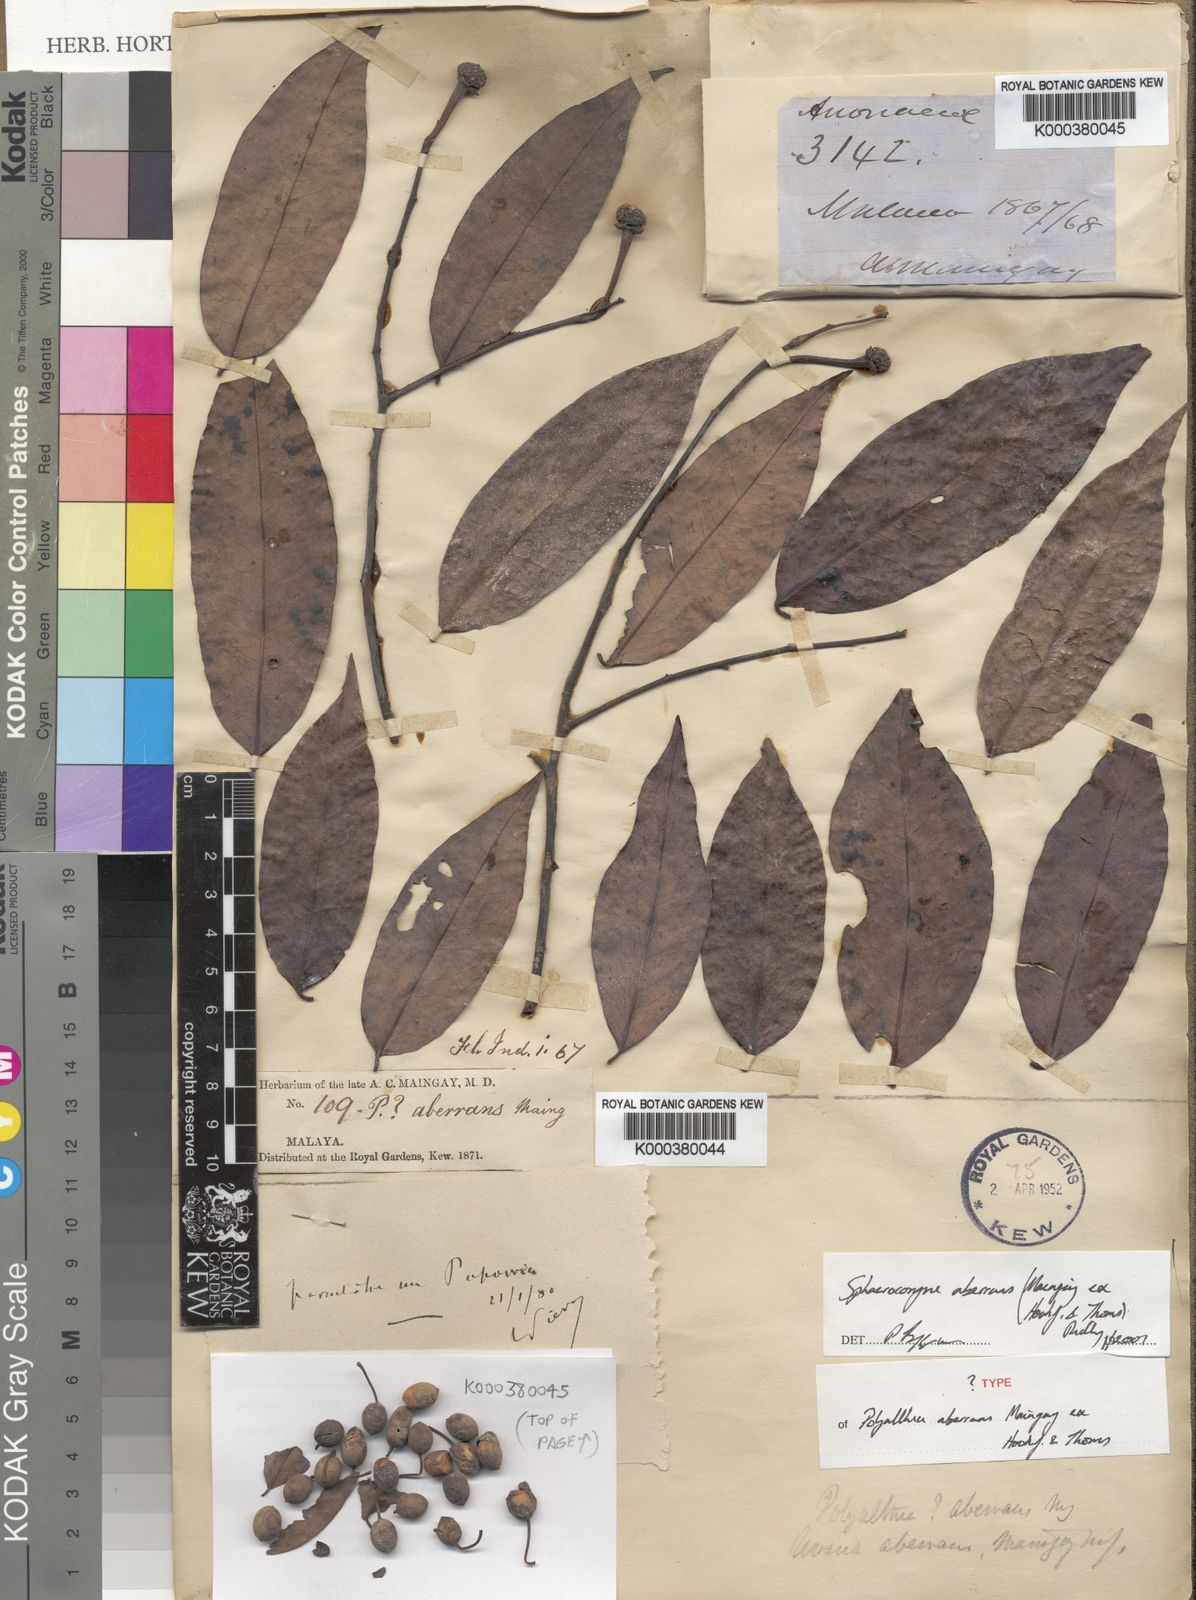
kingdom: Plantae
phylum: Tracheophyta
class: Magnoliopsida
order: Magnoliales
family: Annonaceae
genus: Sphaerocoryne
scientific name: Sphaerocoryne affinis
